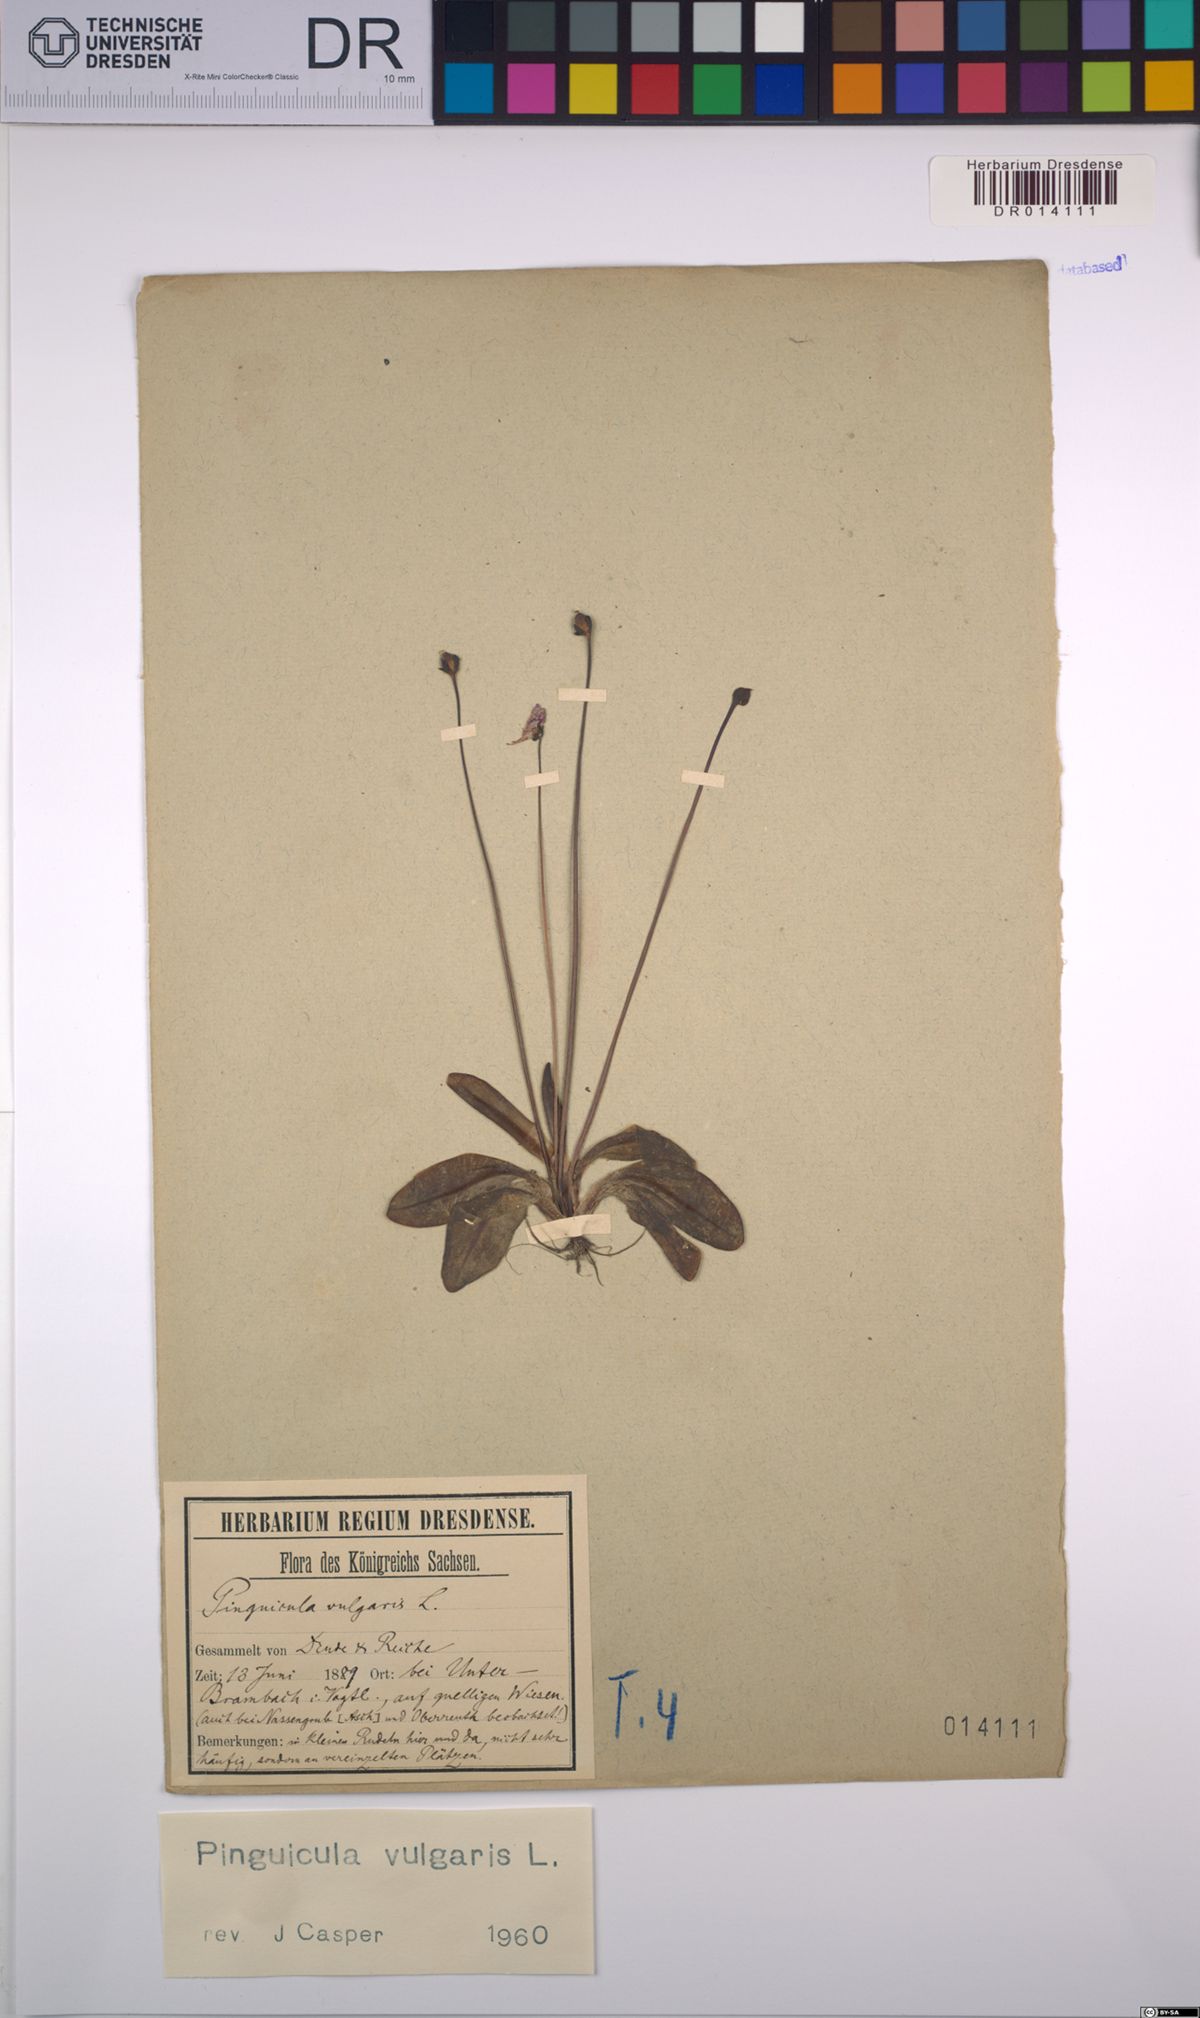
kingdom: Plantae
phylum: Tracheophyta
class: Magnoliopsida
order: Lamiales
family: Lentibulariaceae
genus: Pinguicula
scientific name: Pinguicula vulgaris
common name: Common butterwort
